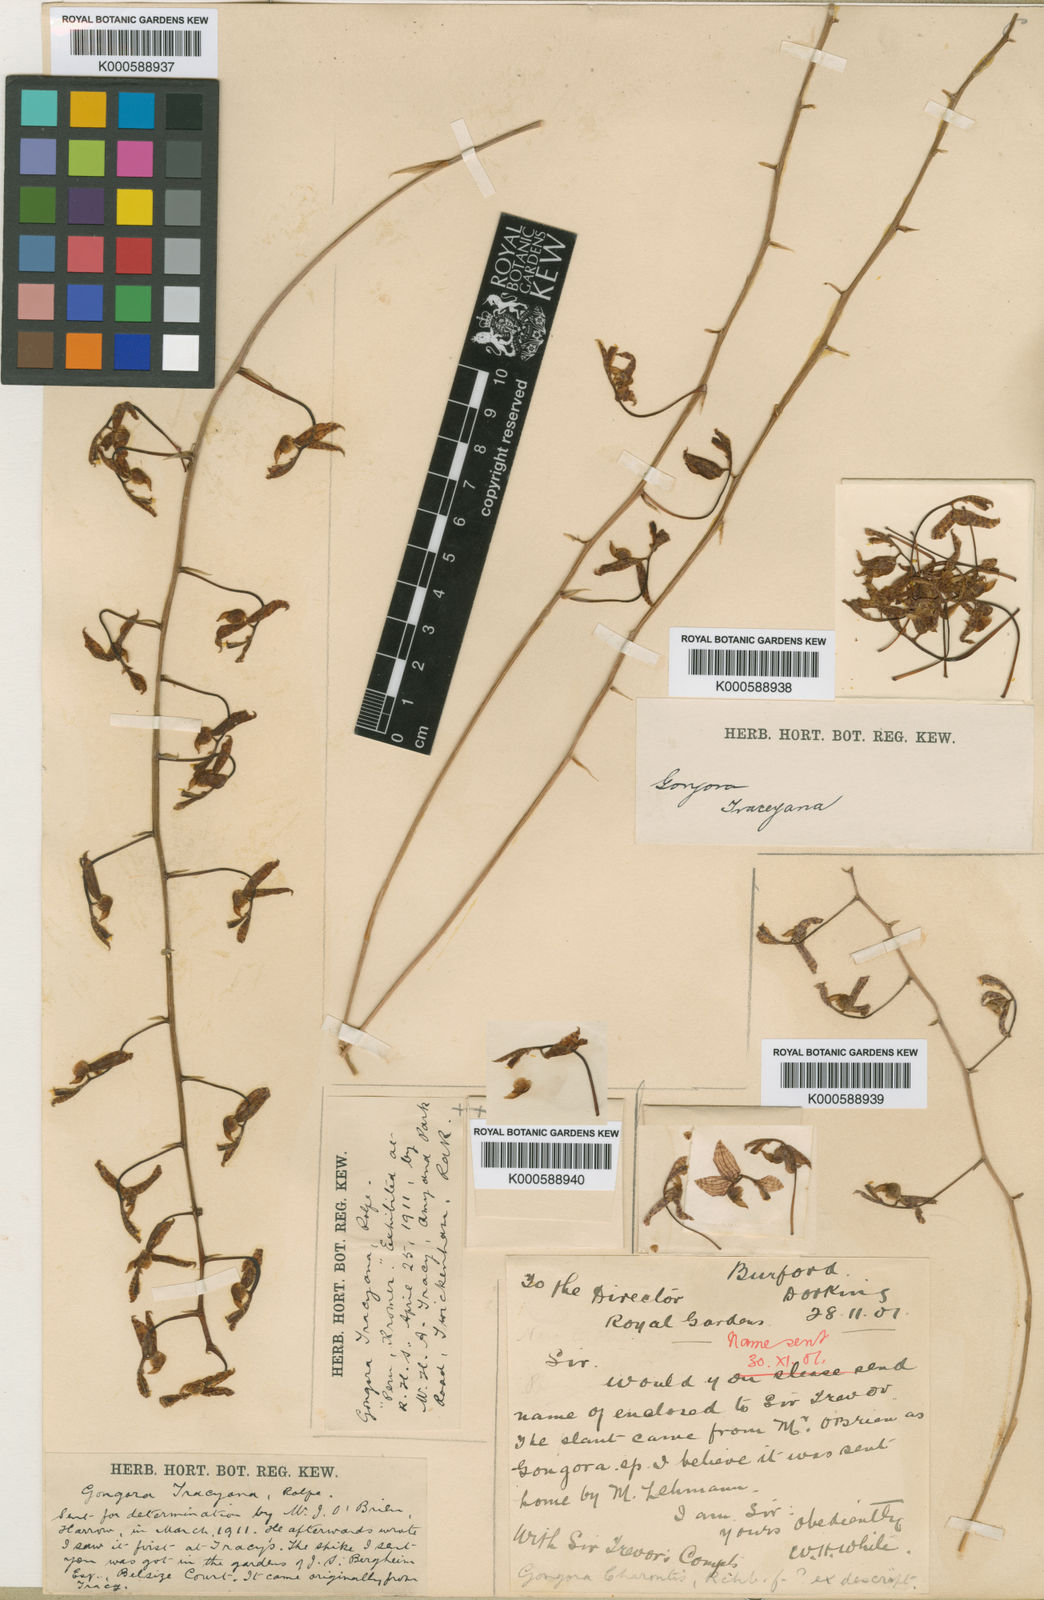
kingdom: Plantae
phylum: Tracheophyta
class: Liliopsida
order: Asparagales
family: Orchidaceae
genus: Gongora
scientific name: Gongora tracyana
